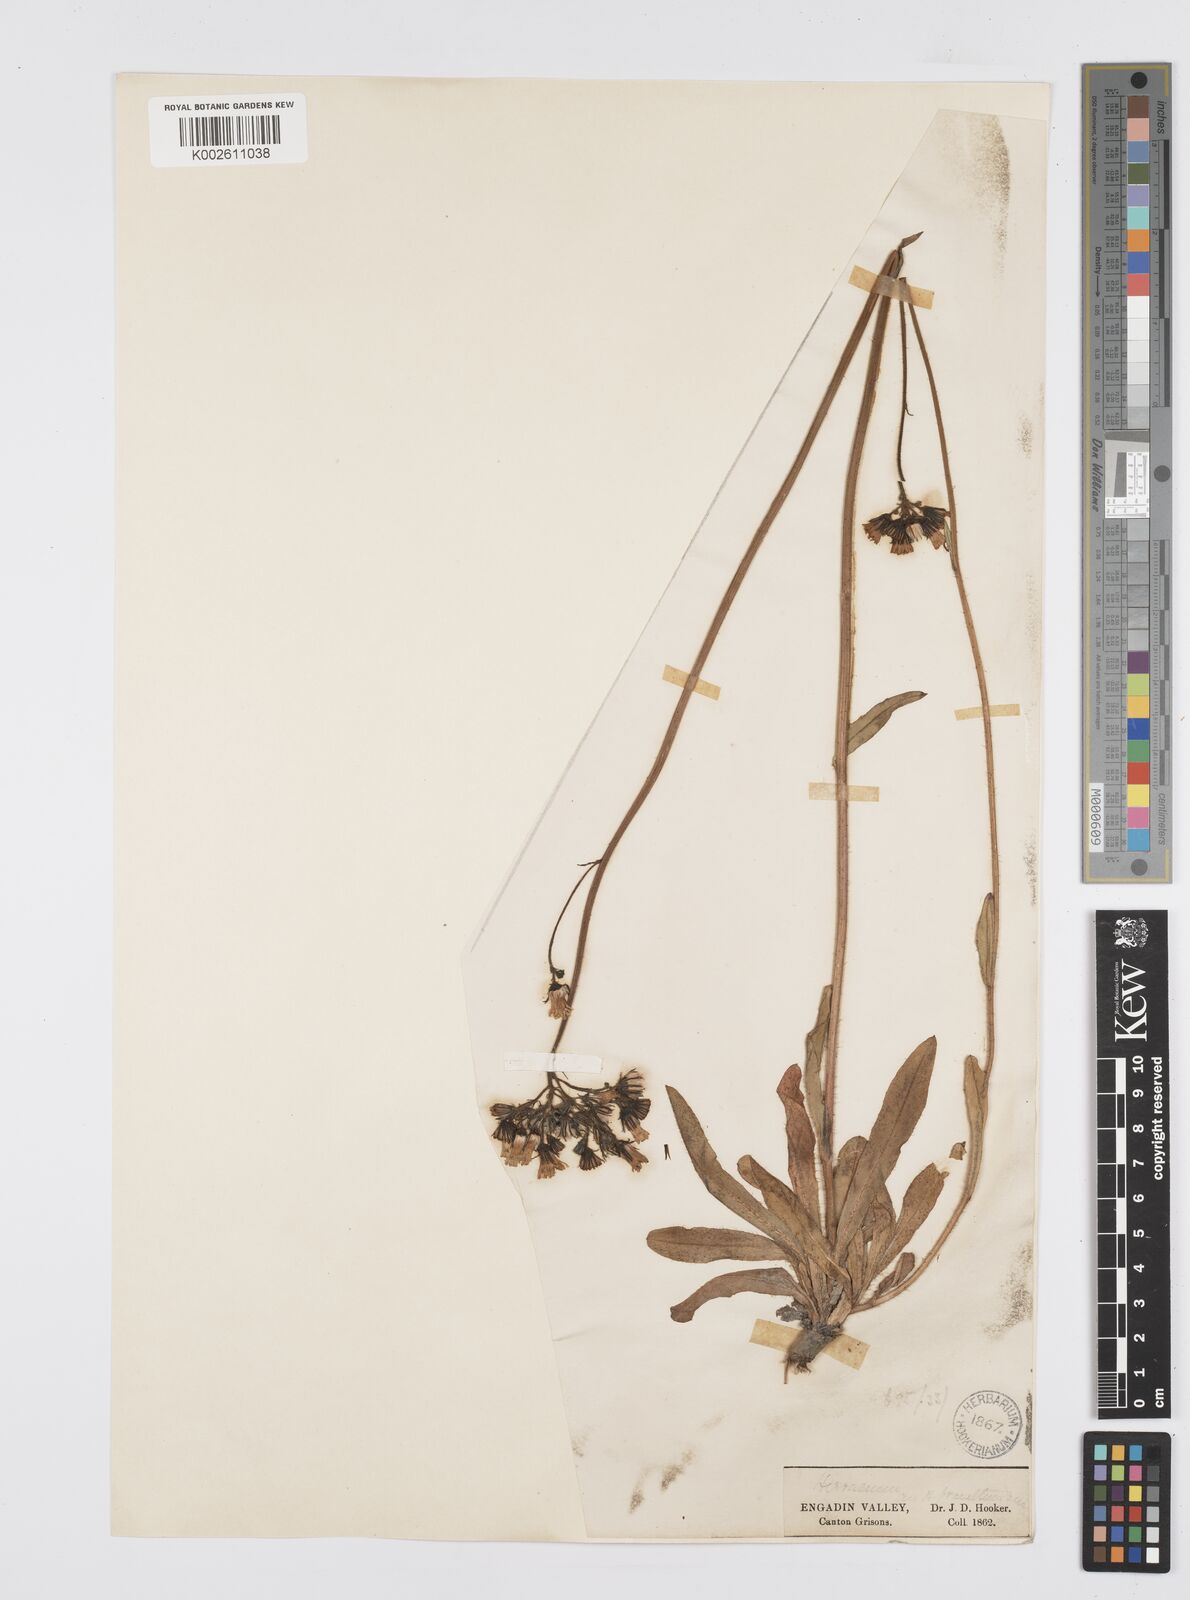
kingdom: Plantae
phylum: Tracheophyta
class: Magnoliopsida
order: Asterales
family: Asteraceae
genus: Pilosella
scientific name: Pilosella piloselloides
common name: Glaucous king-devil
